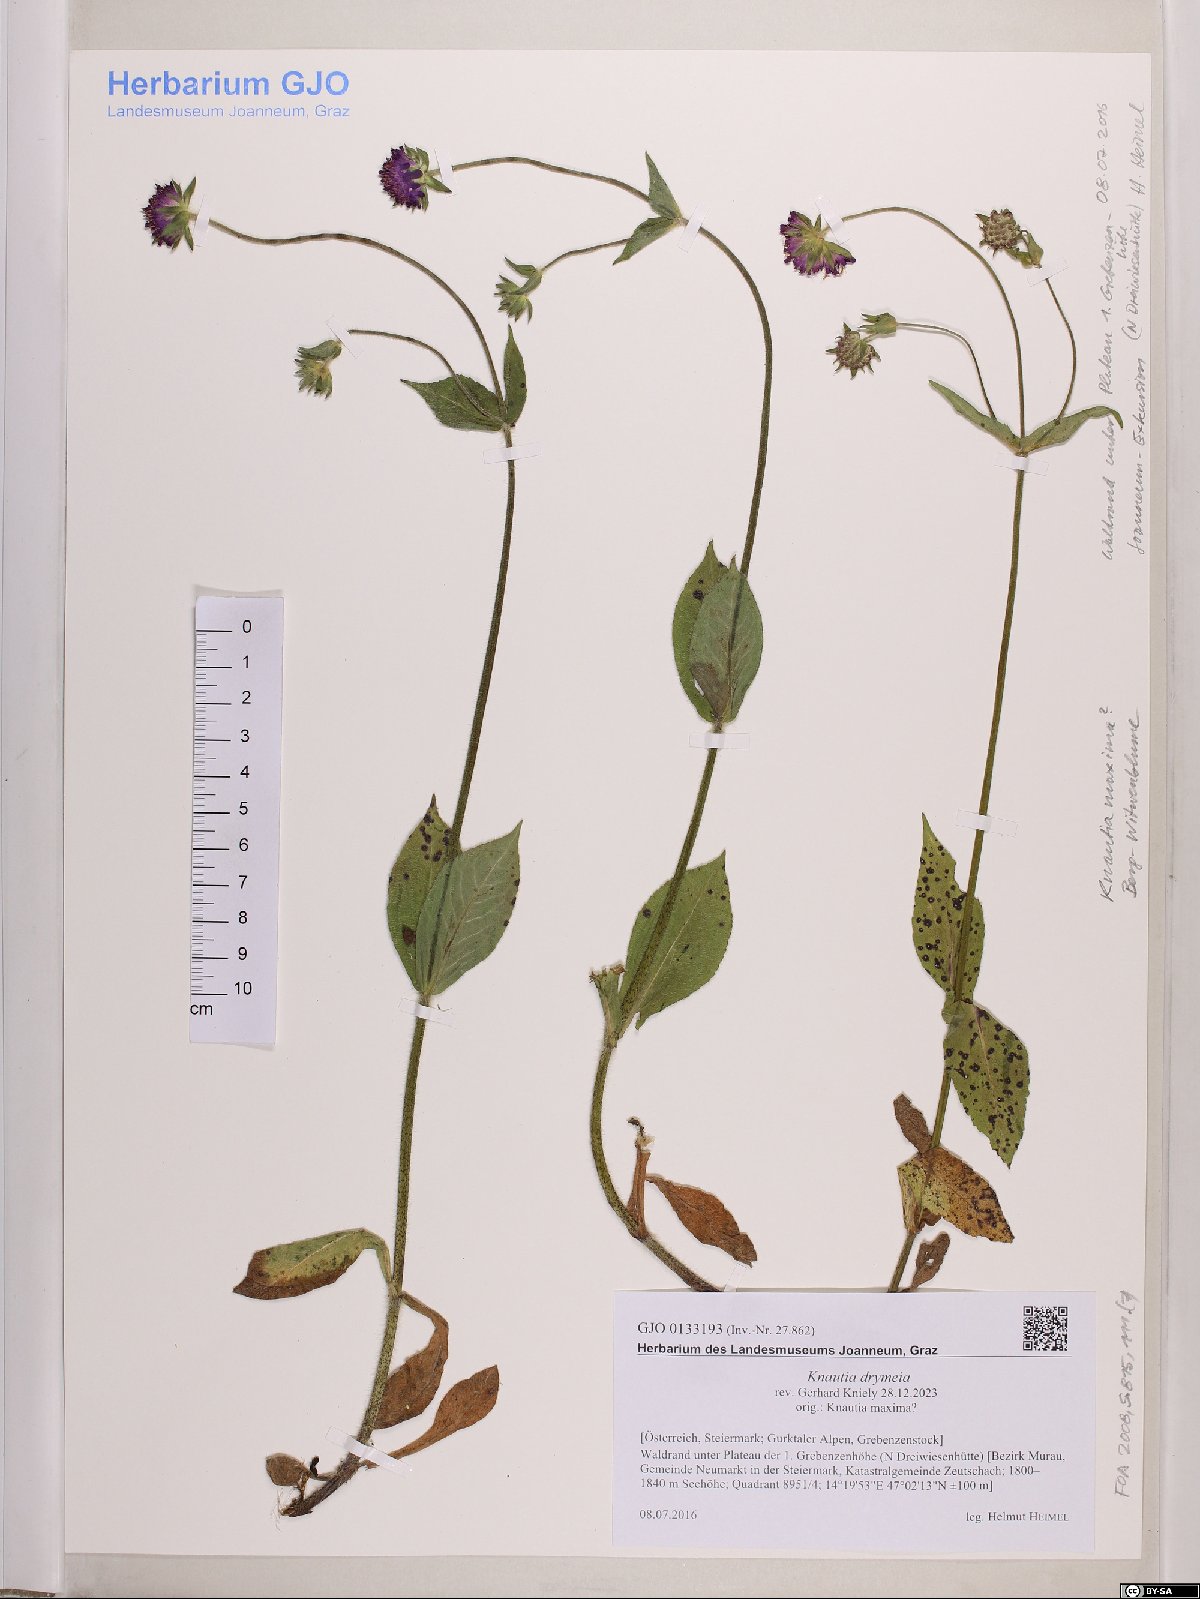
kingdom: Plantae
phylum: Tracheophyta
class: Magnoliopsida
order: Dipsacales
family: Caprifoliaceae
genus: Knautia
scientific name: Knautia drymeia
